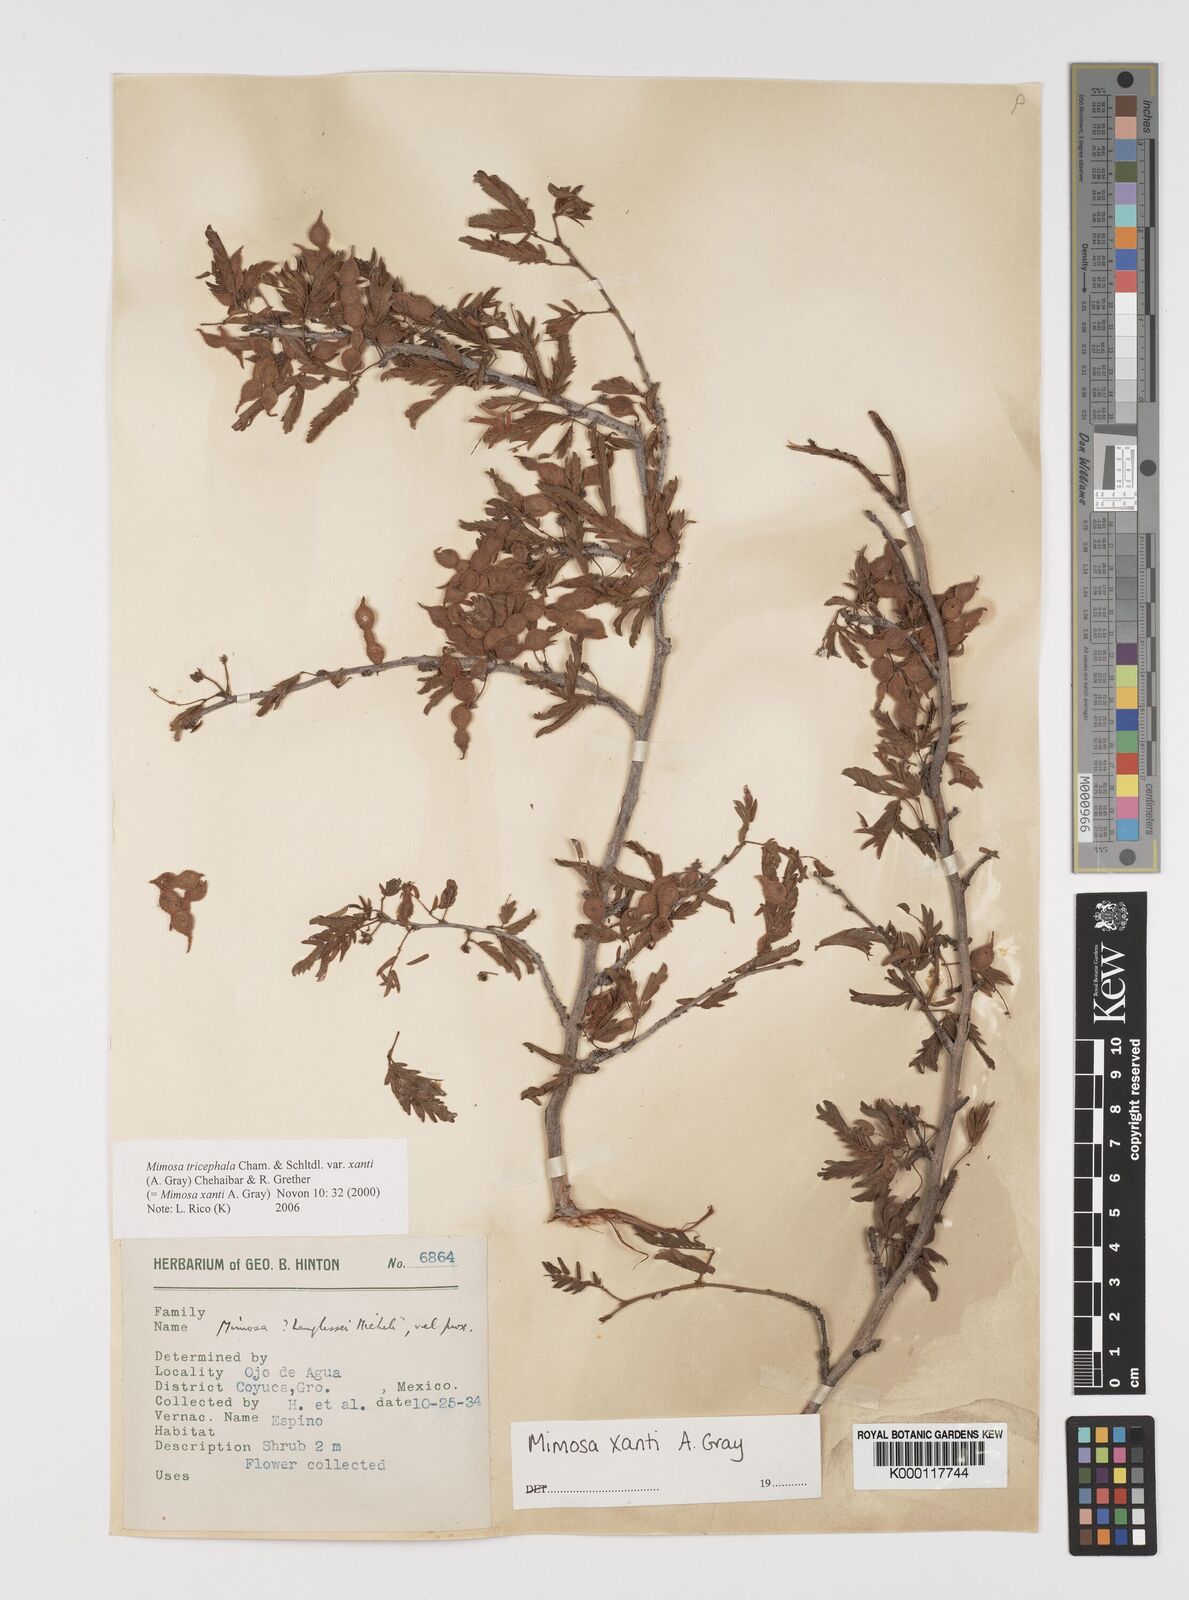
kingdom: Plantae
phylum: Tracheophyta
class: Magnoliopsida
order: Fabales
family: Fabaceae
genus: Mimosa
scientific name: Mimosa tricephala
